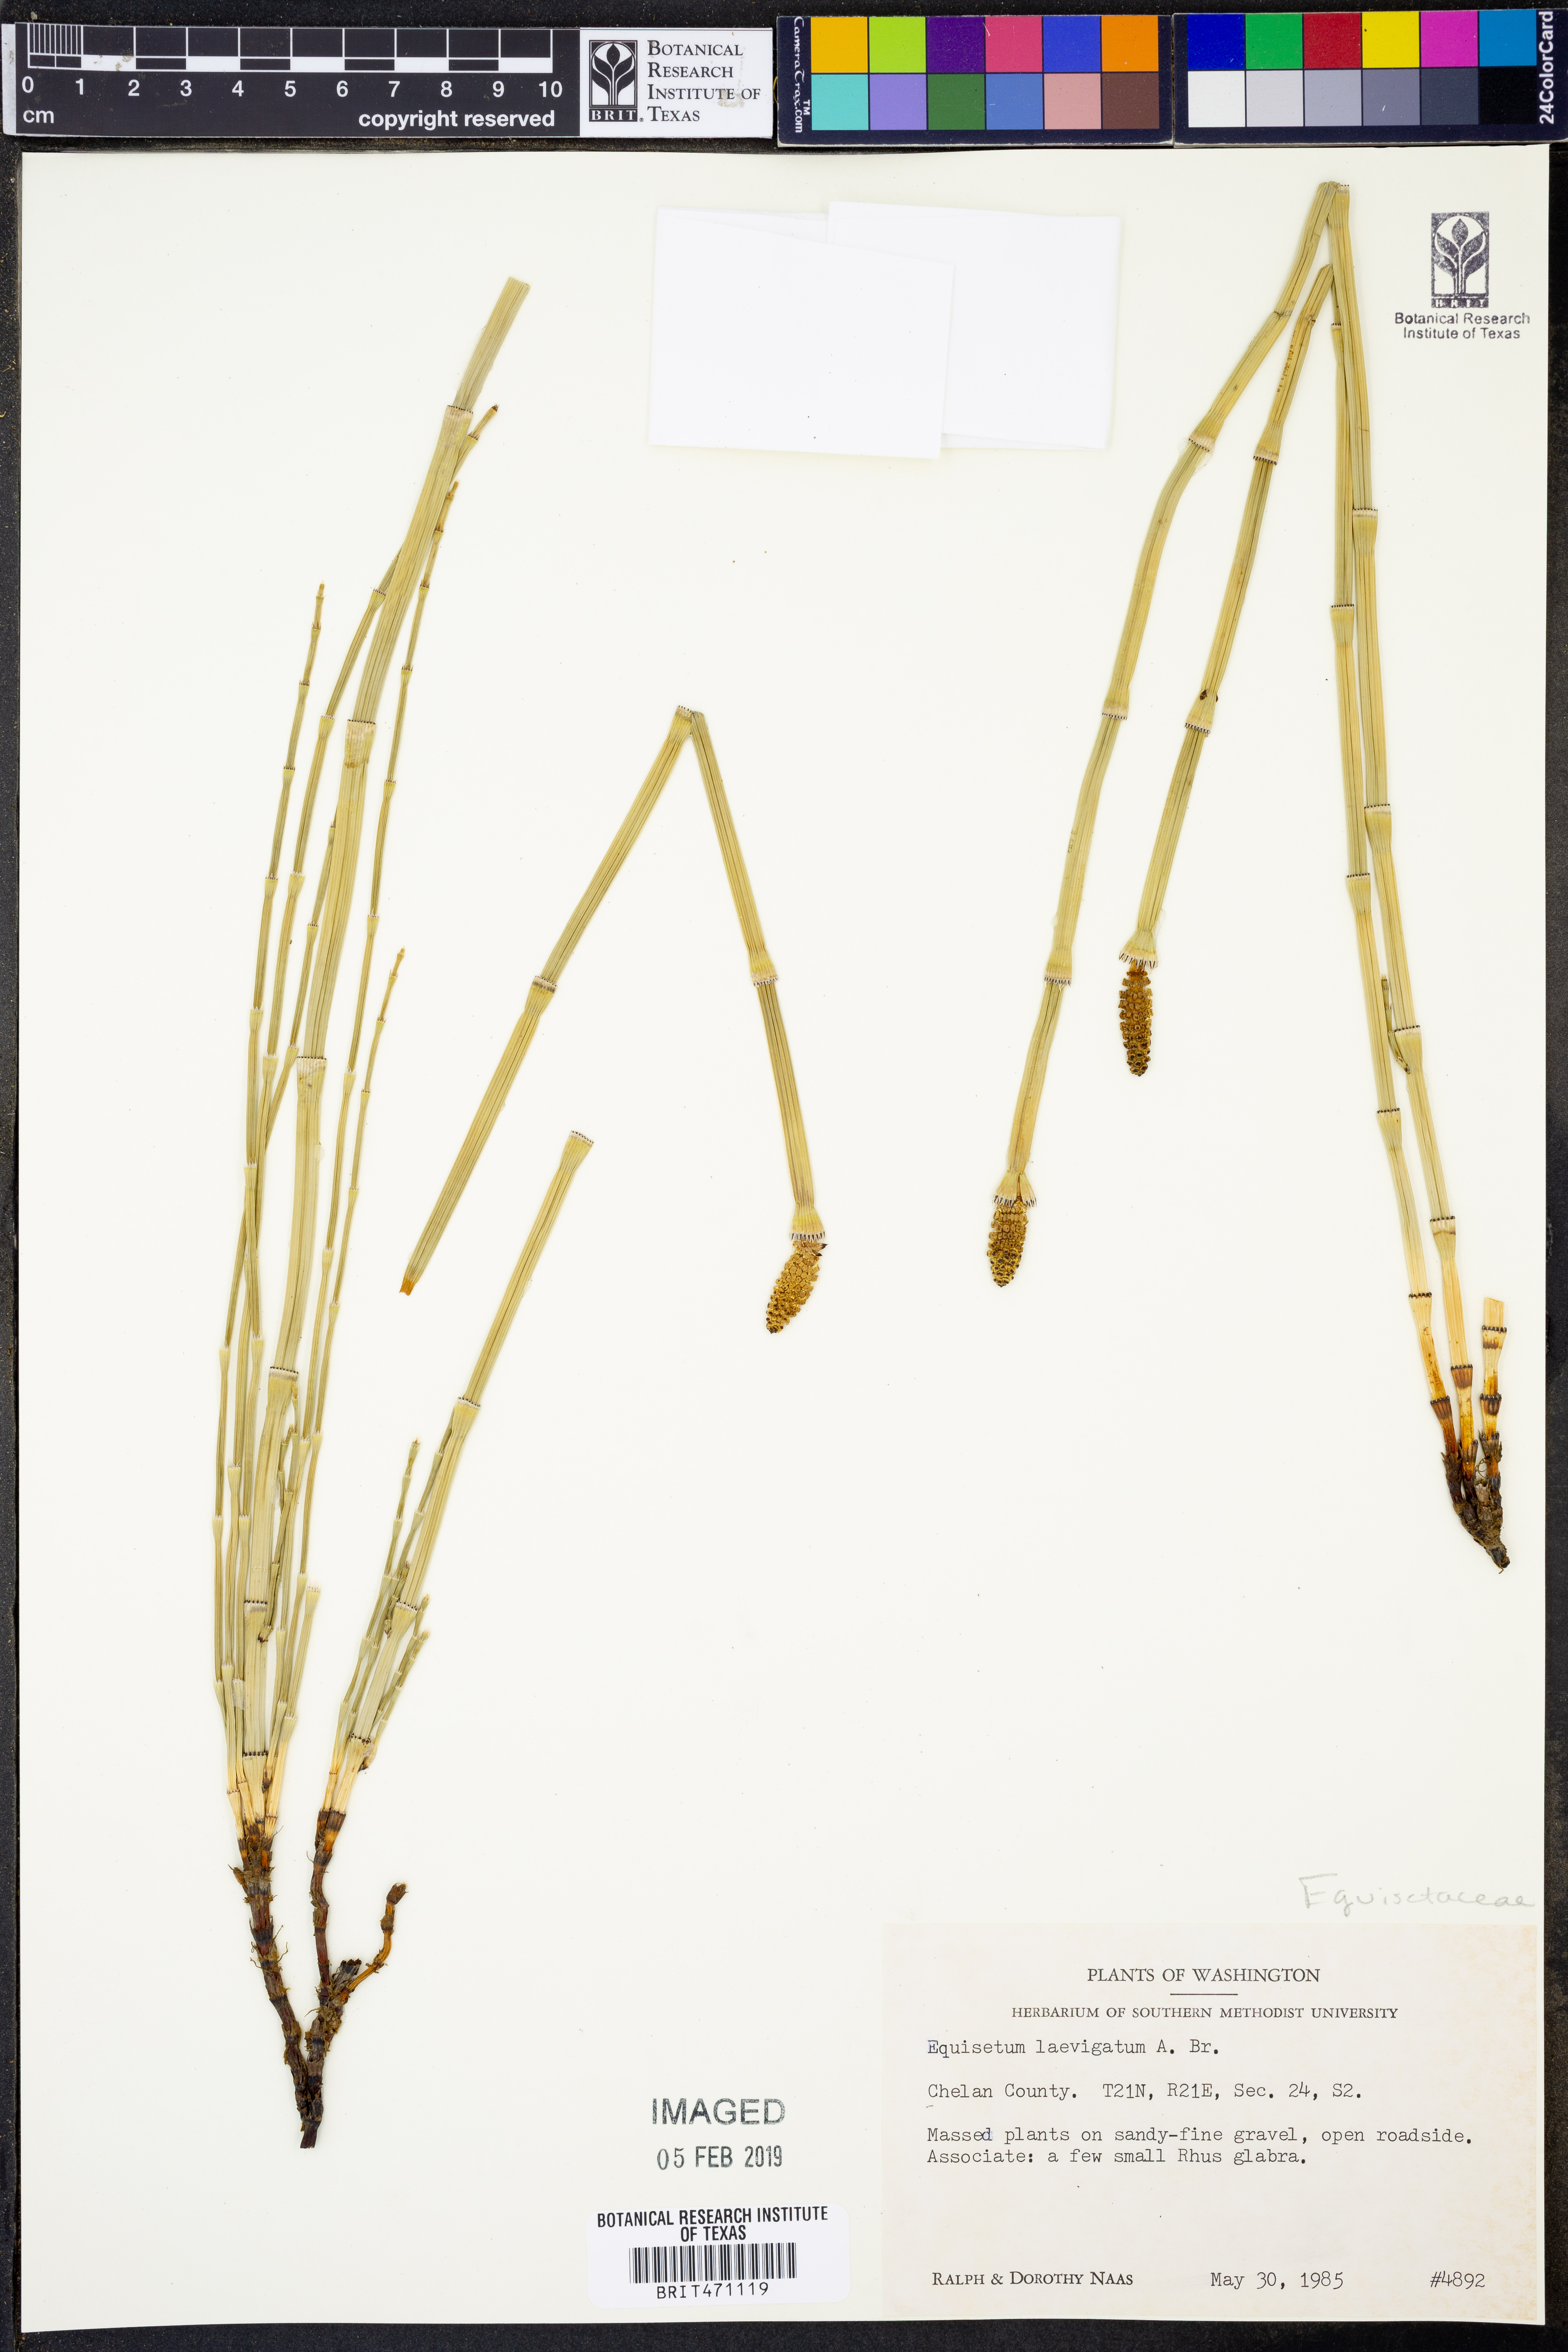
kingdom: Plantae
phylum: Tracheophyta
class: Polypodiopsida
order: Equisetales
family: Equisetaceae
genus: Equisetum
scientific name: Equisetum laevigatum
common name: Smooth scouring-rush
